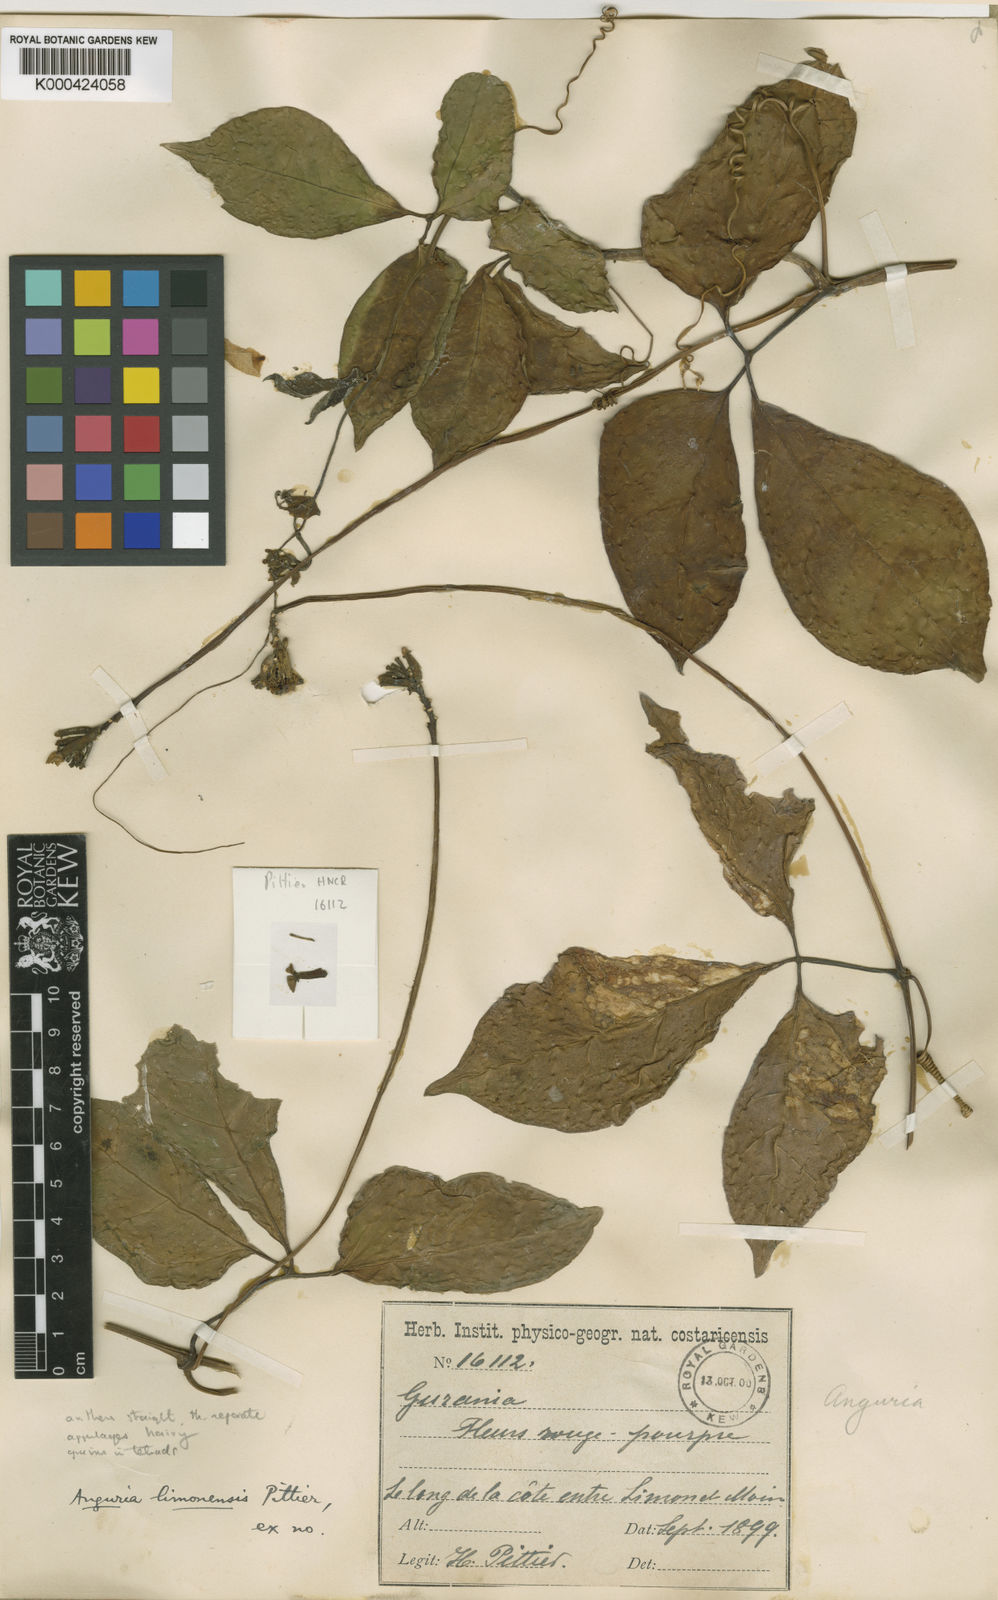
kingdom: Plantae
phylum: Tracheophyta
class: Magnoliopsida
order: Cucurbitales
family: Cucurbitaceae
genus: Psiguria
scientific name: Psiguria warscewiczii
